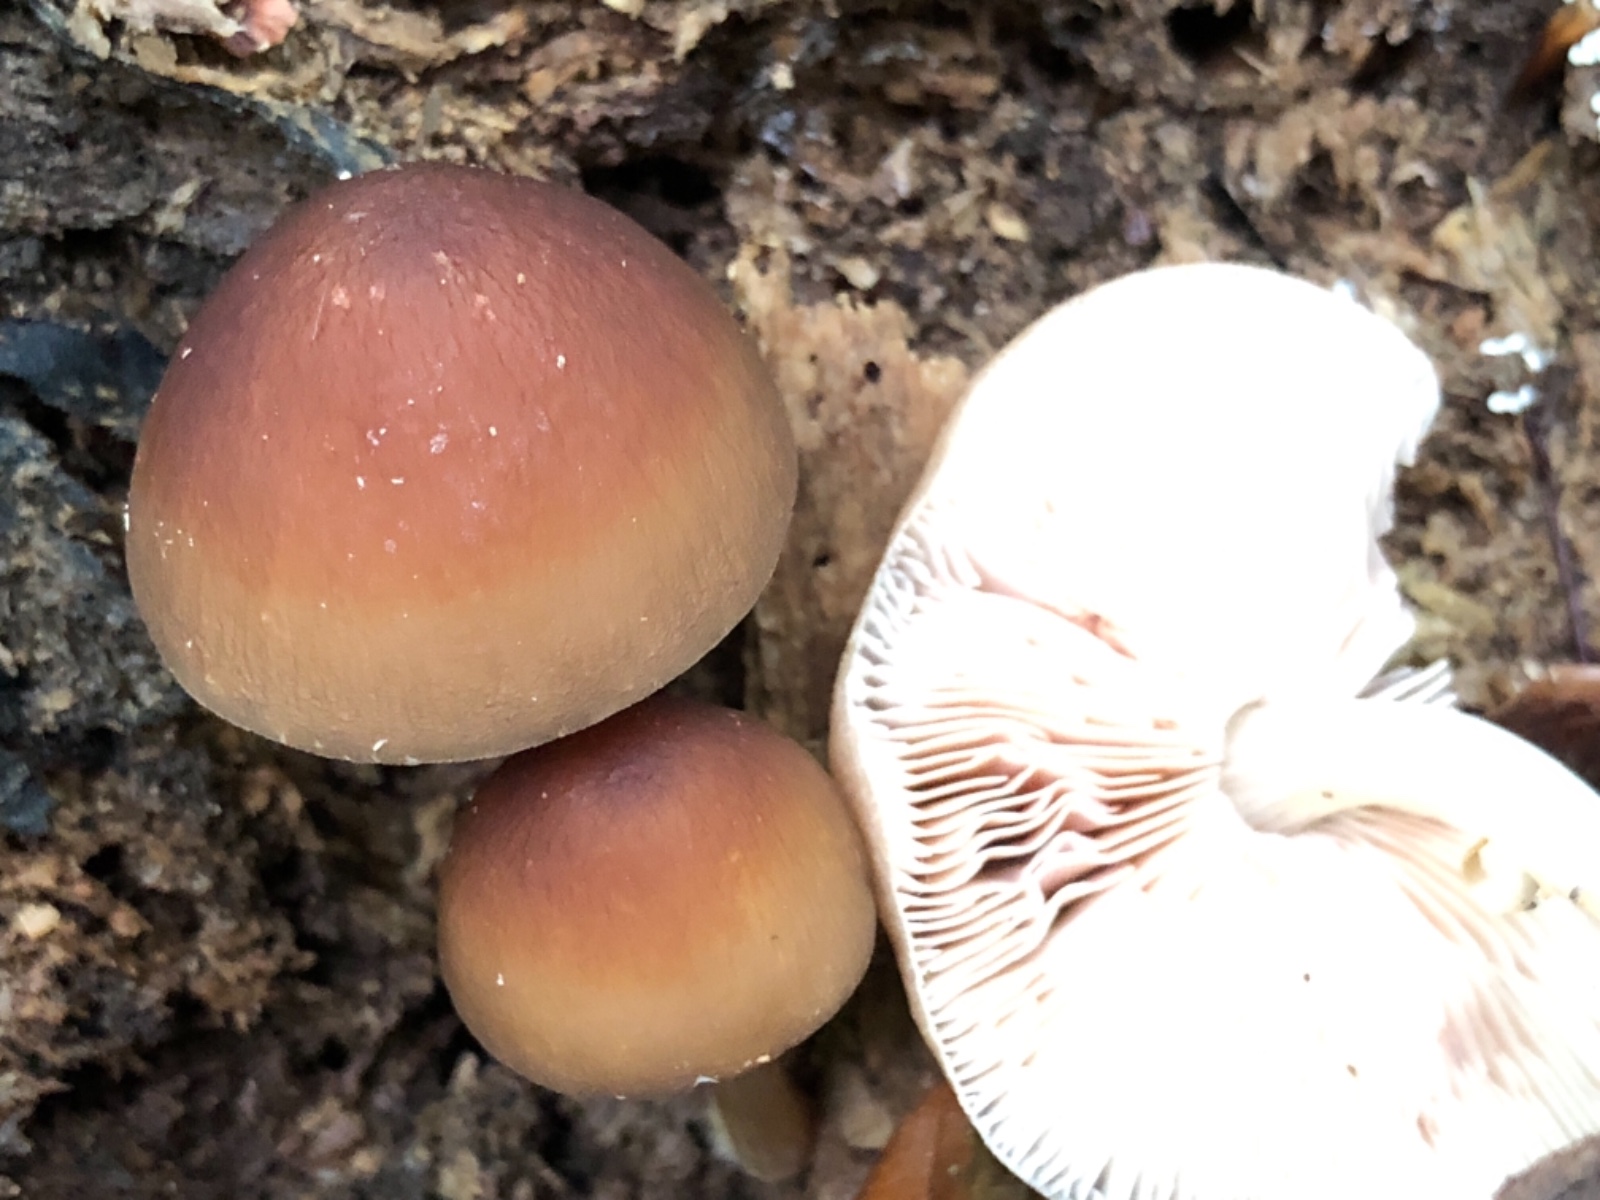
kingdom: Fungi
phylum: Basidiomycota
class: Agaricomycetes
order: Agaricales
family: Pluteaceae
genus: Pluteus
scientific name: Pluteus phlebophorus
